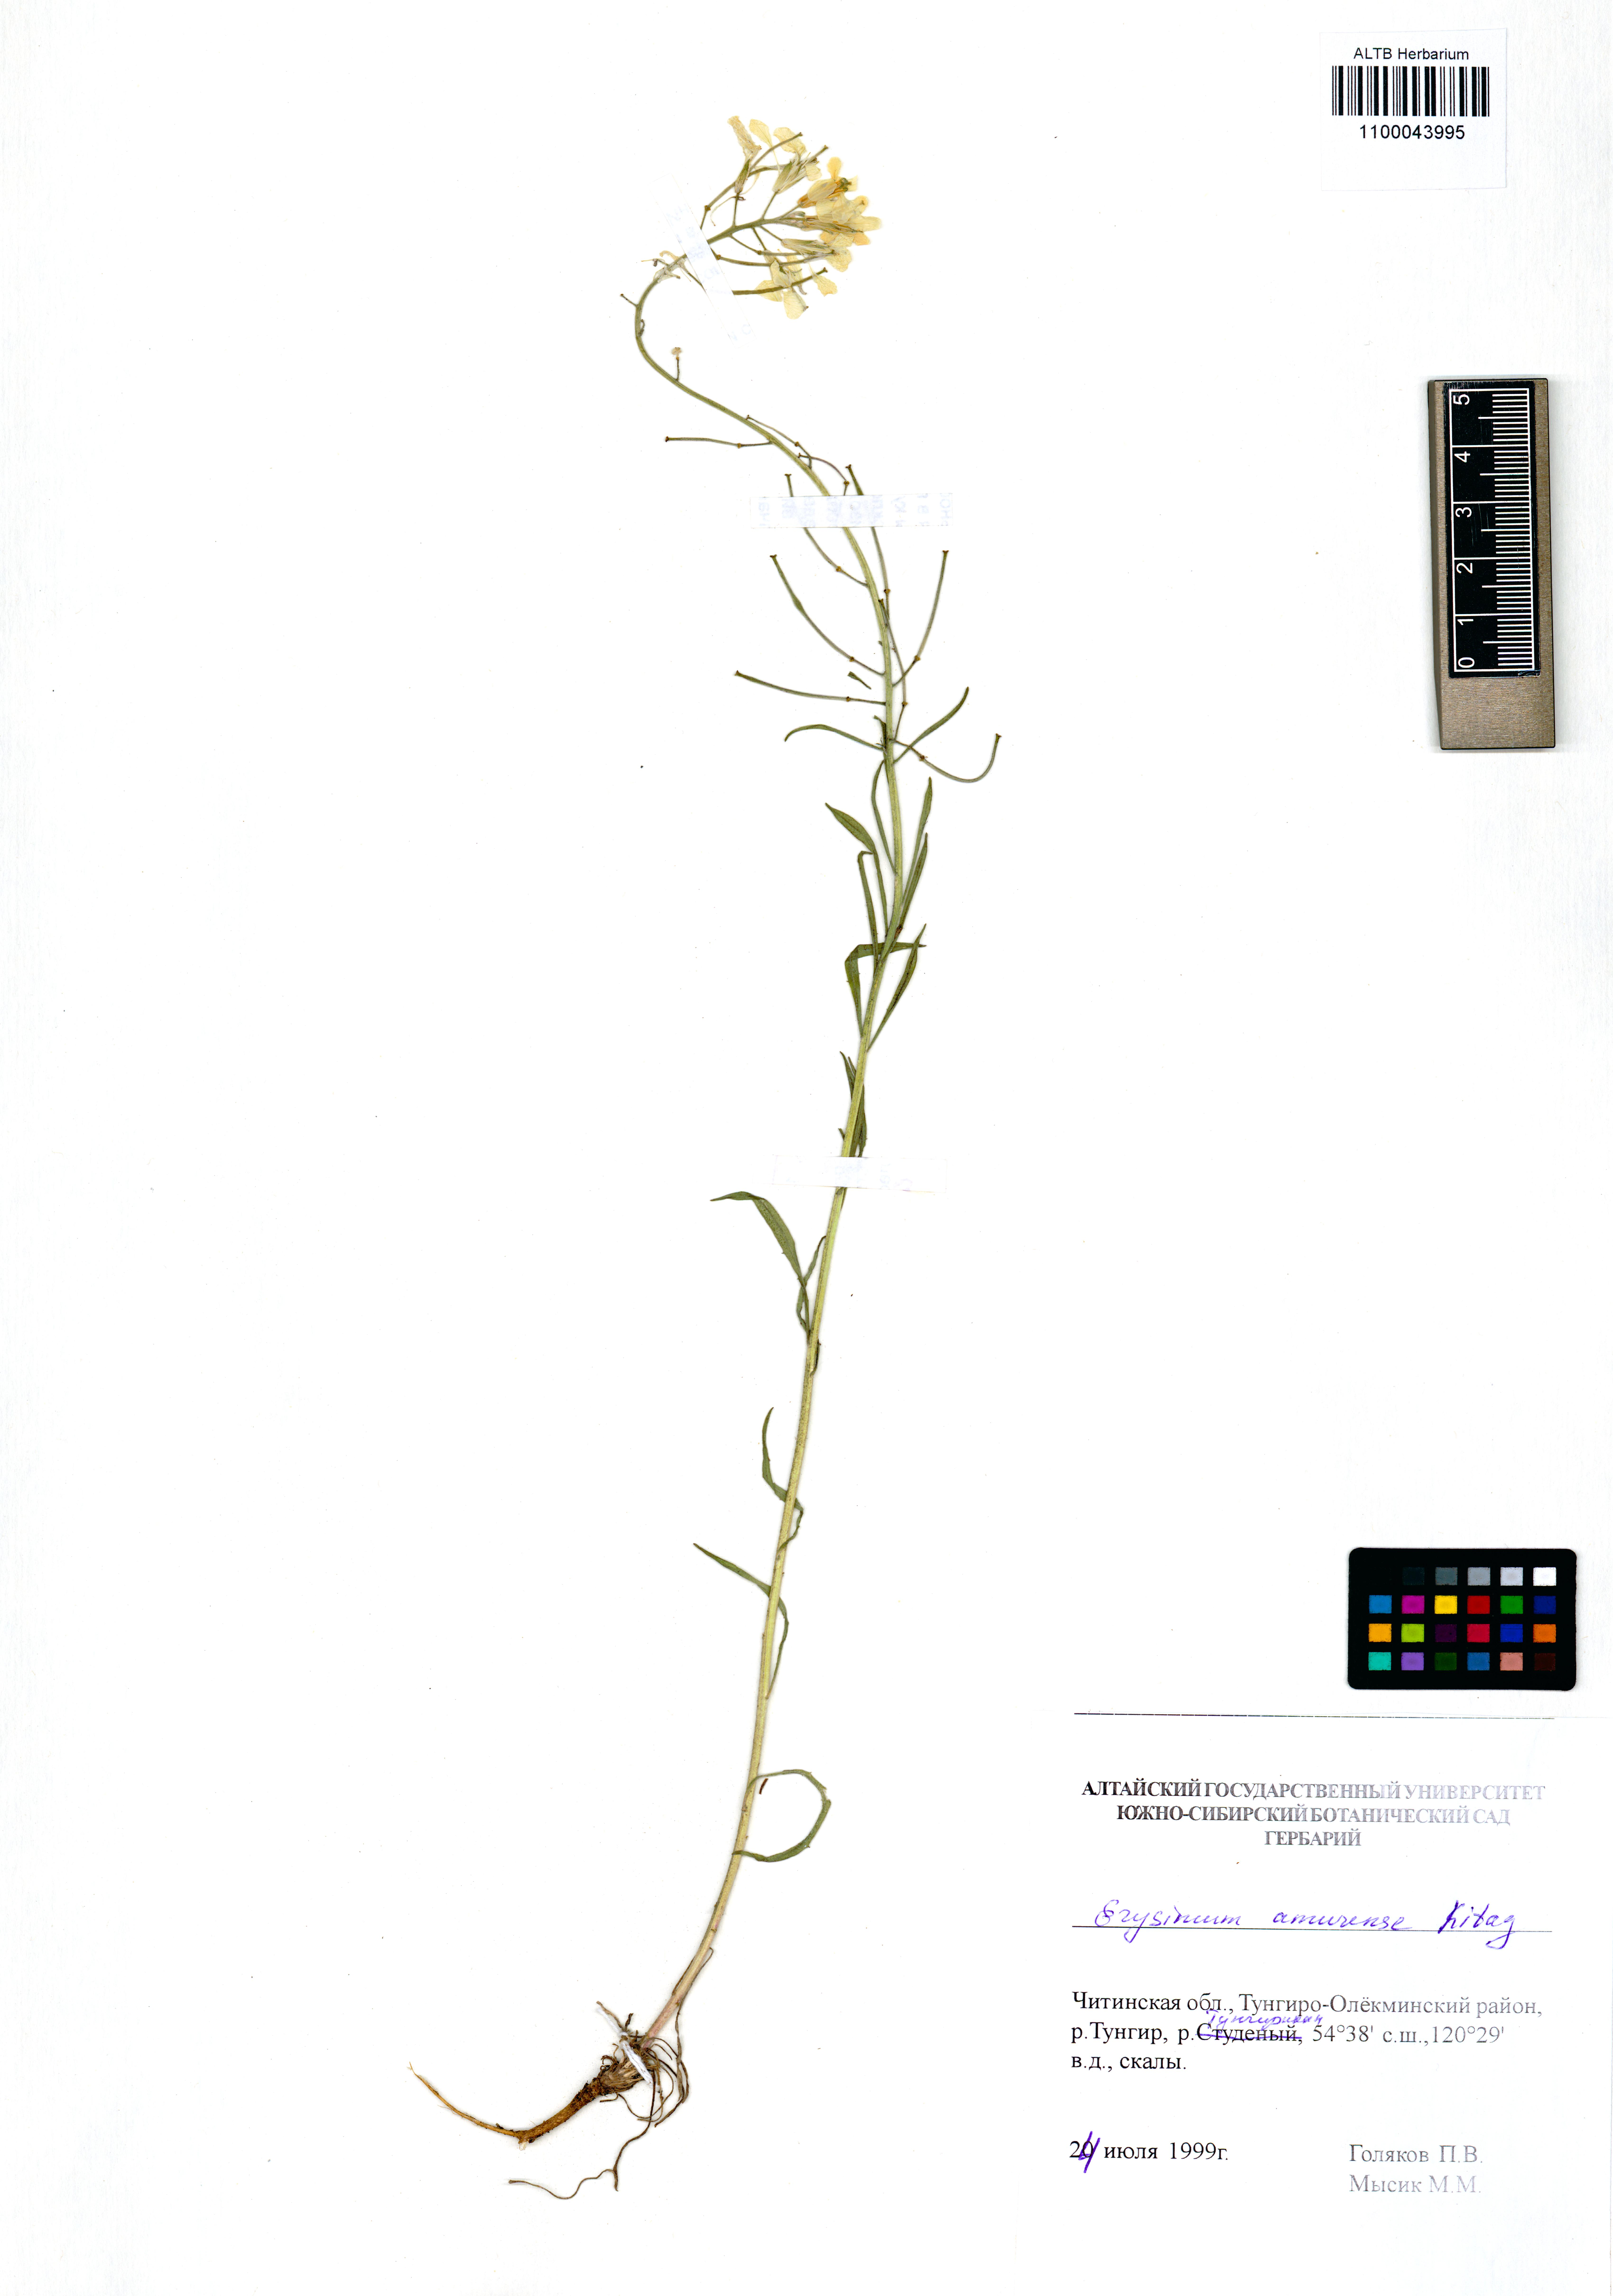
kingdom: Plantae
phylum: Tracheophyta
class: Magnoliopsida
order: Brassicales
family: Brassicaceae
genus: Erysimum
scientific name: Erysimum amurense
